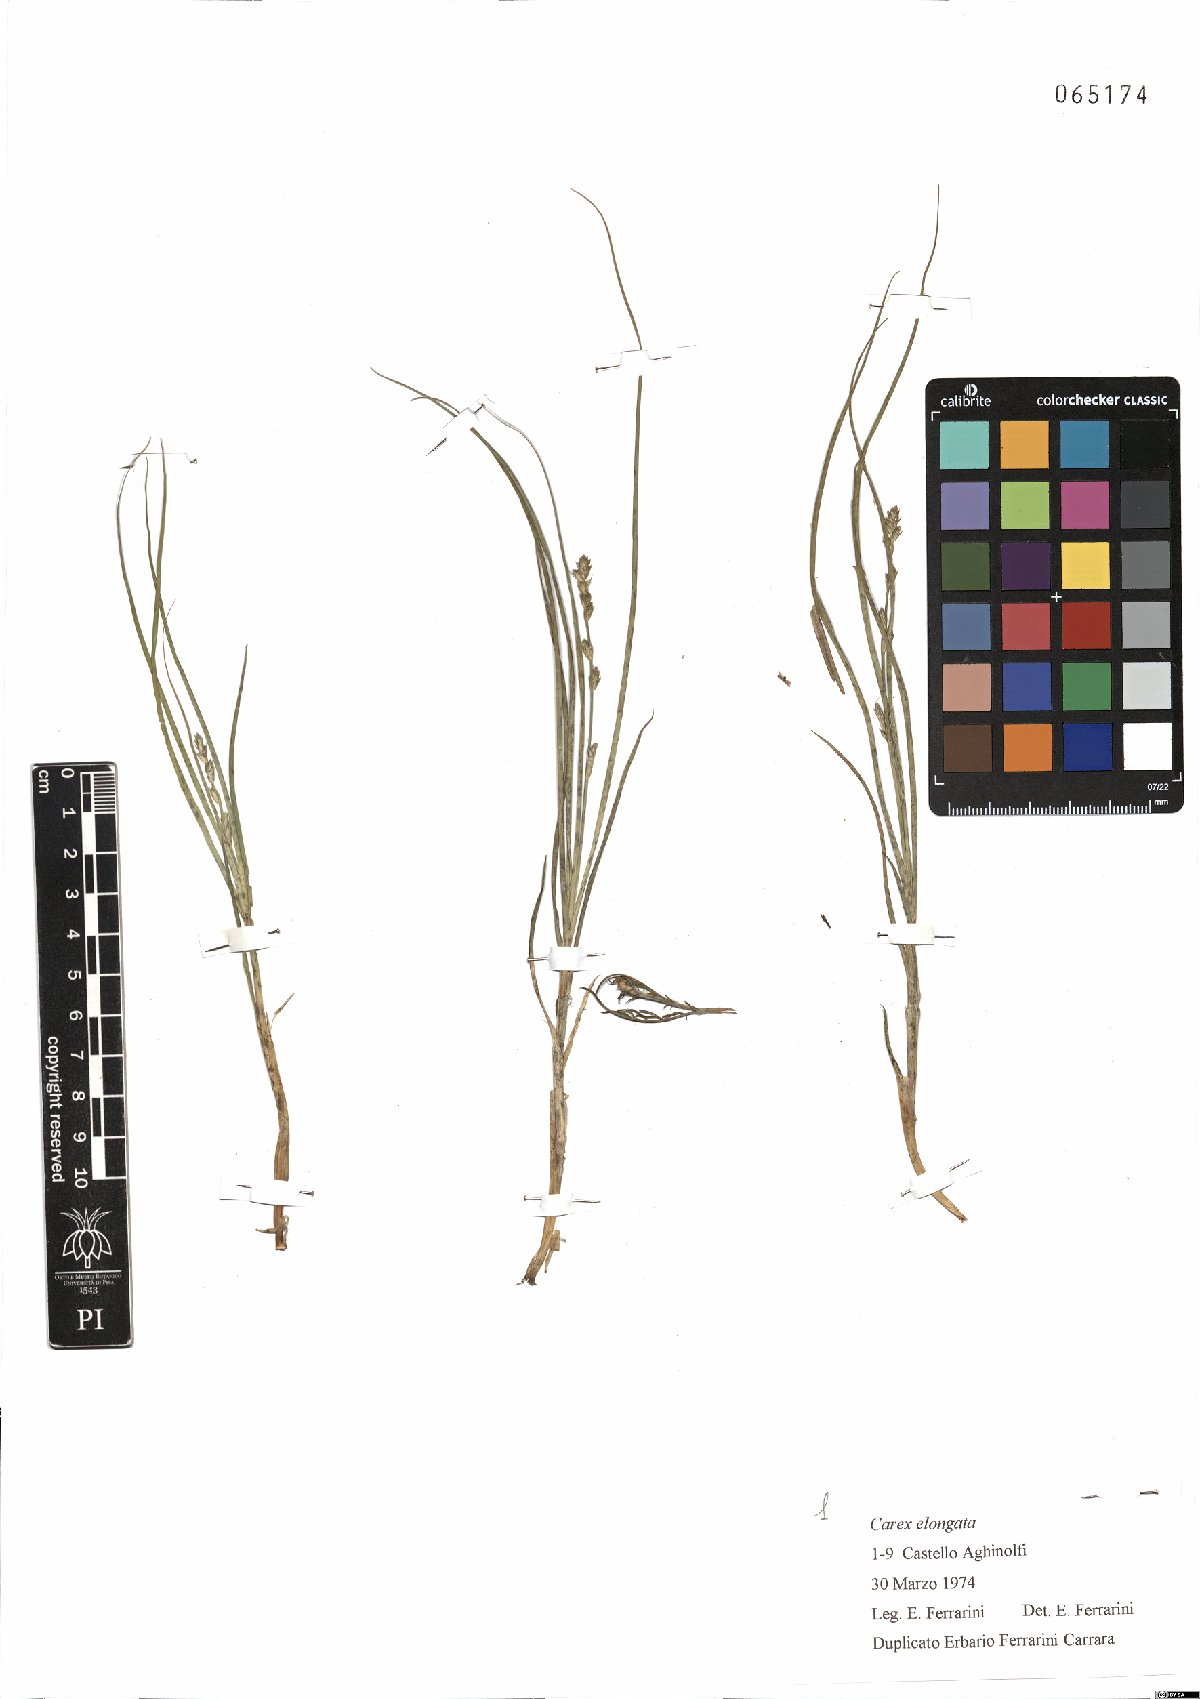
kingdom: Plantae
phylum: Tracheophyta
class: Liliopsida
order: Poales
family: Cyperaceae
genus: Carex
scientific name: Carex divulsa
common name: Grassland sedge
